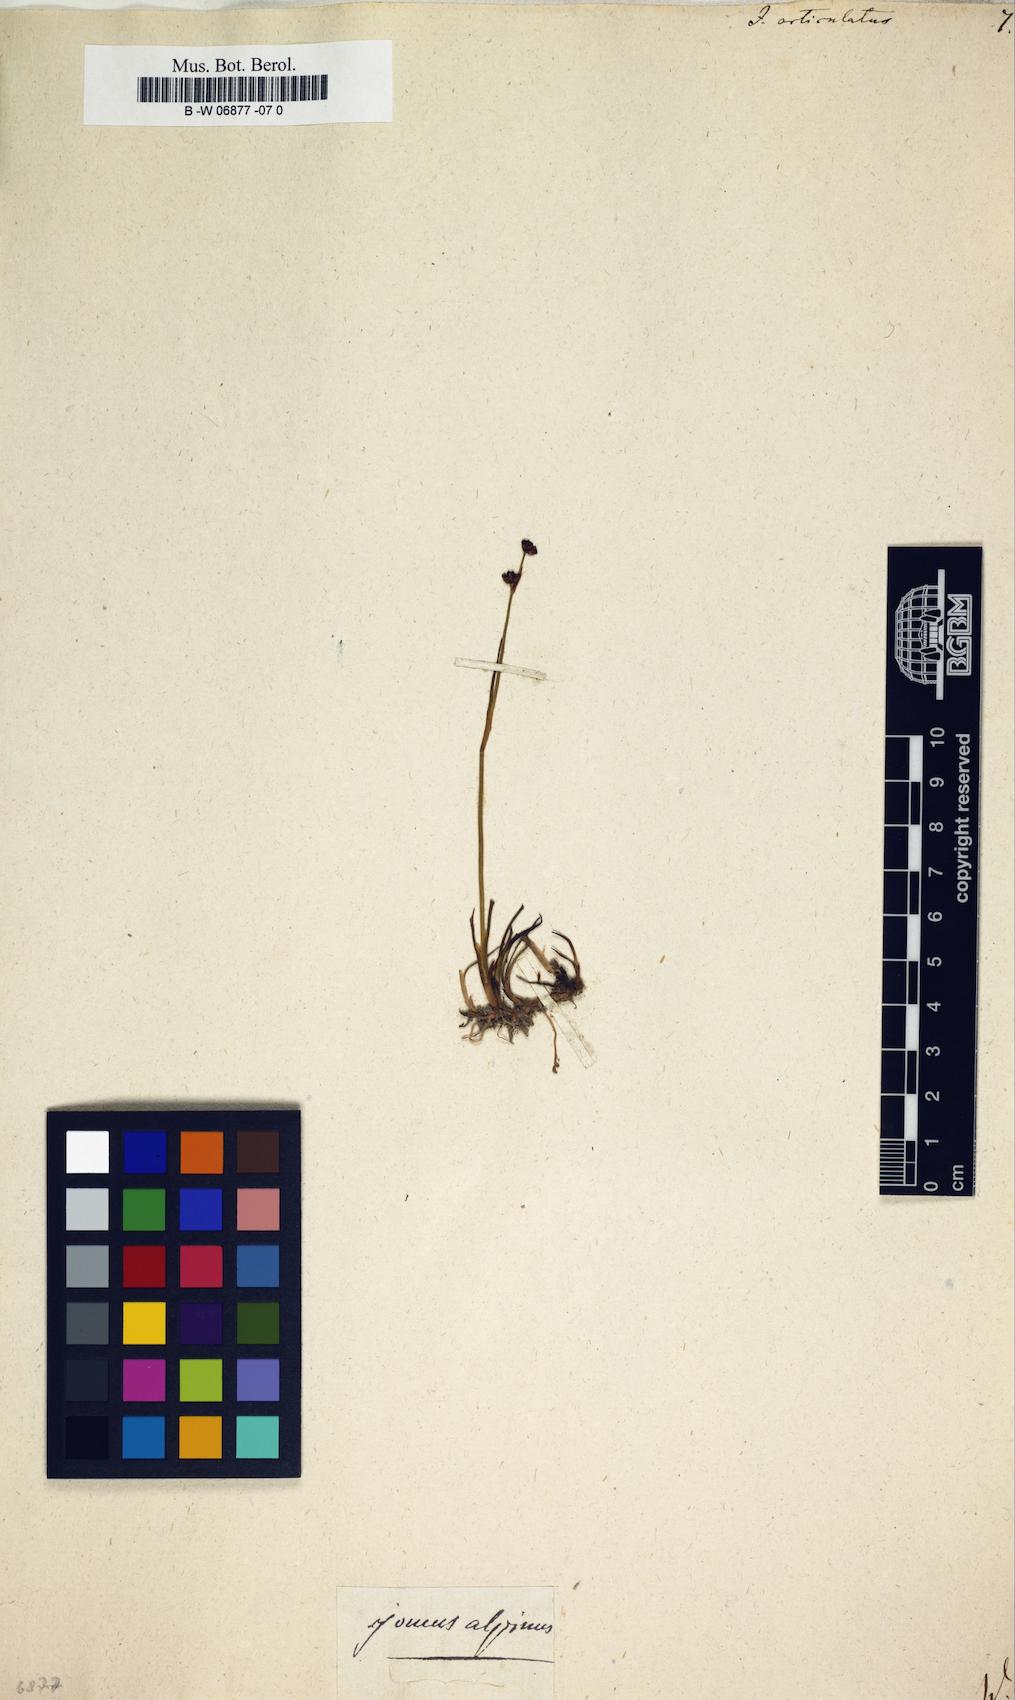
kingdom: Plantae
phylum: Tracheophyta
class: Liliopsida
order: Poales
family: Juncaceae
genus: Juncus
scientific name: Juncus articulatus
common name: Jointed rush
